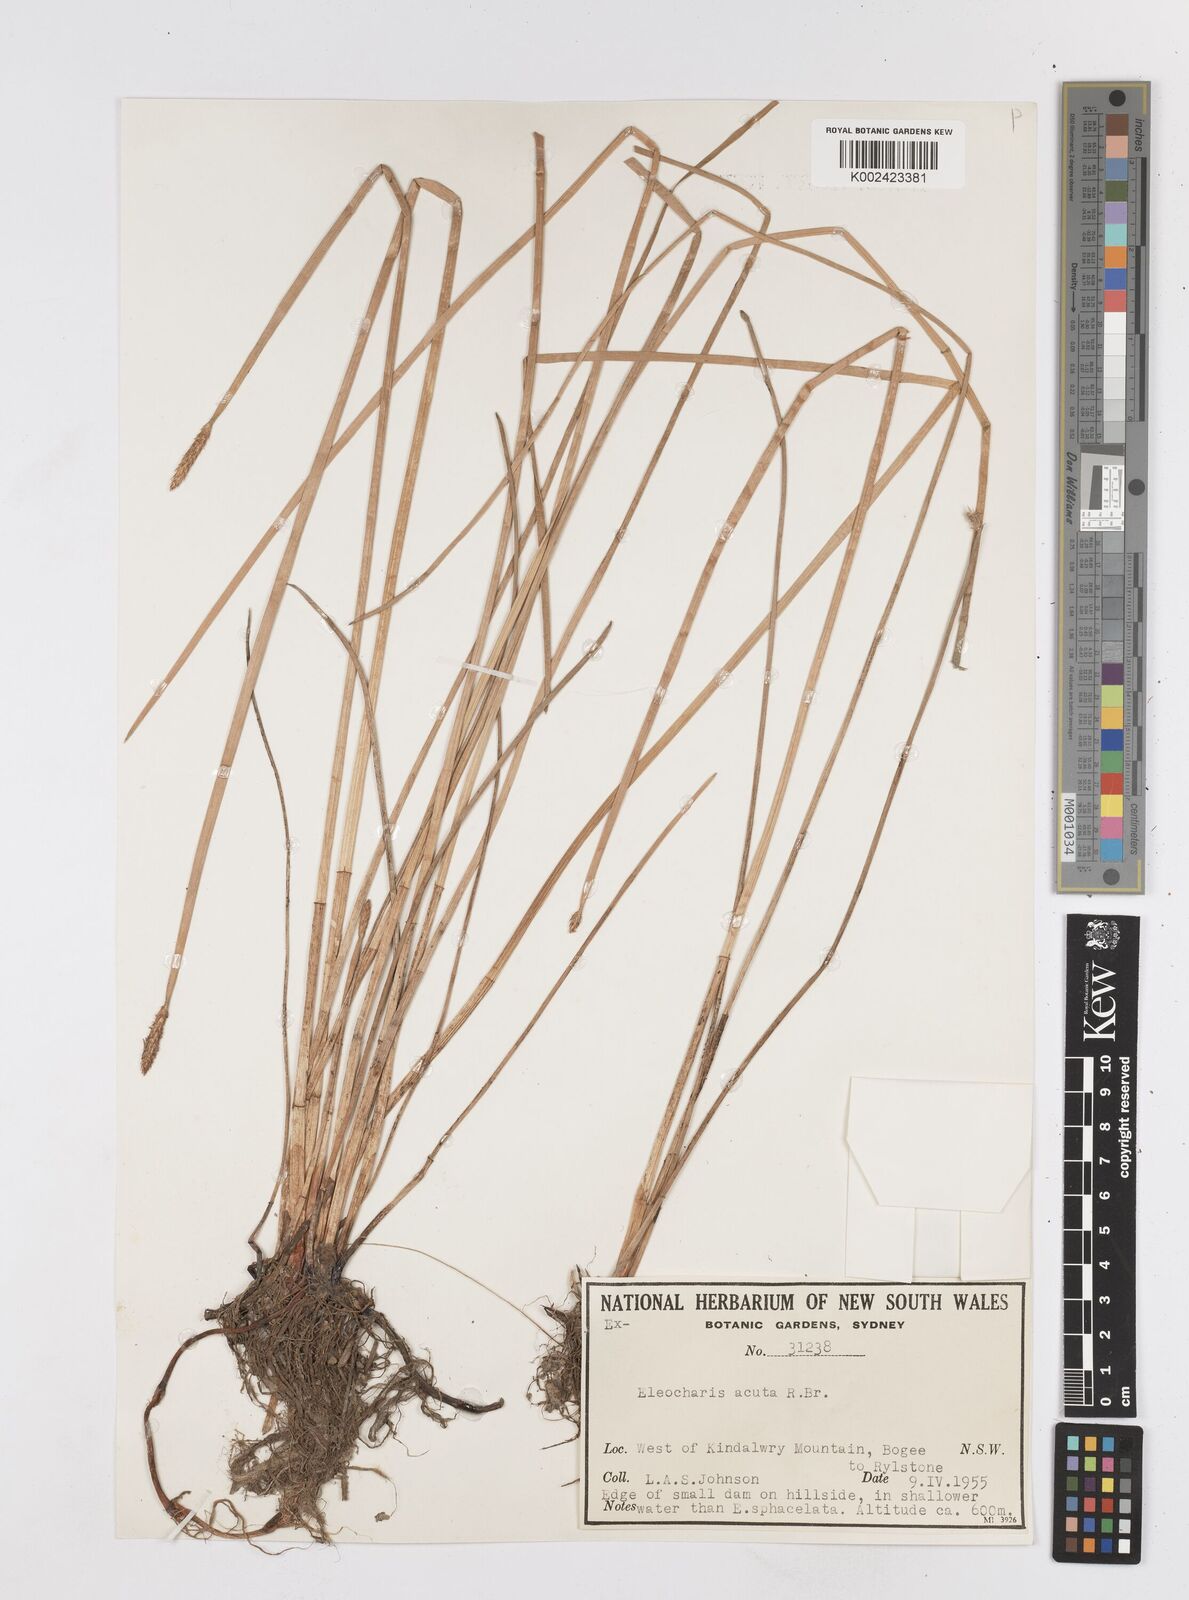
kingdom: Plantae
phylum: Tracheophyta
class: Liliopsida
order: Poales
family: Cyperaceae
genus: Eleocharis
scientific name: Eleocharis acuta
